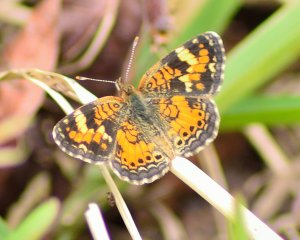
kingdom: Animalia
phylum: Arthropoda
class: Insecta
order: Lepidoptera
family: Nymphalidae
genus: Phyciodes
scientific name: Phyciodes phaon
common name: Phaon Crescent
